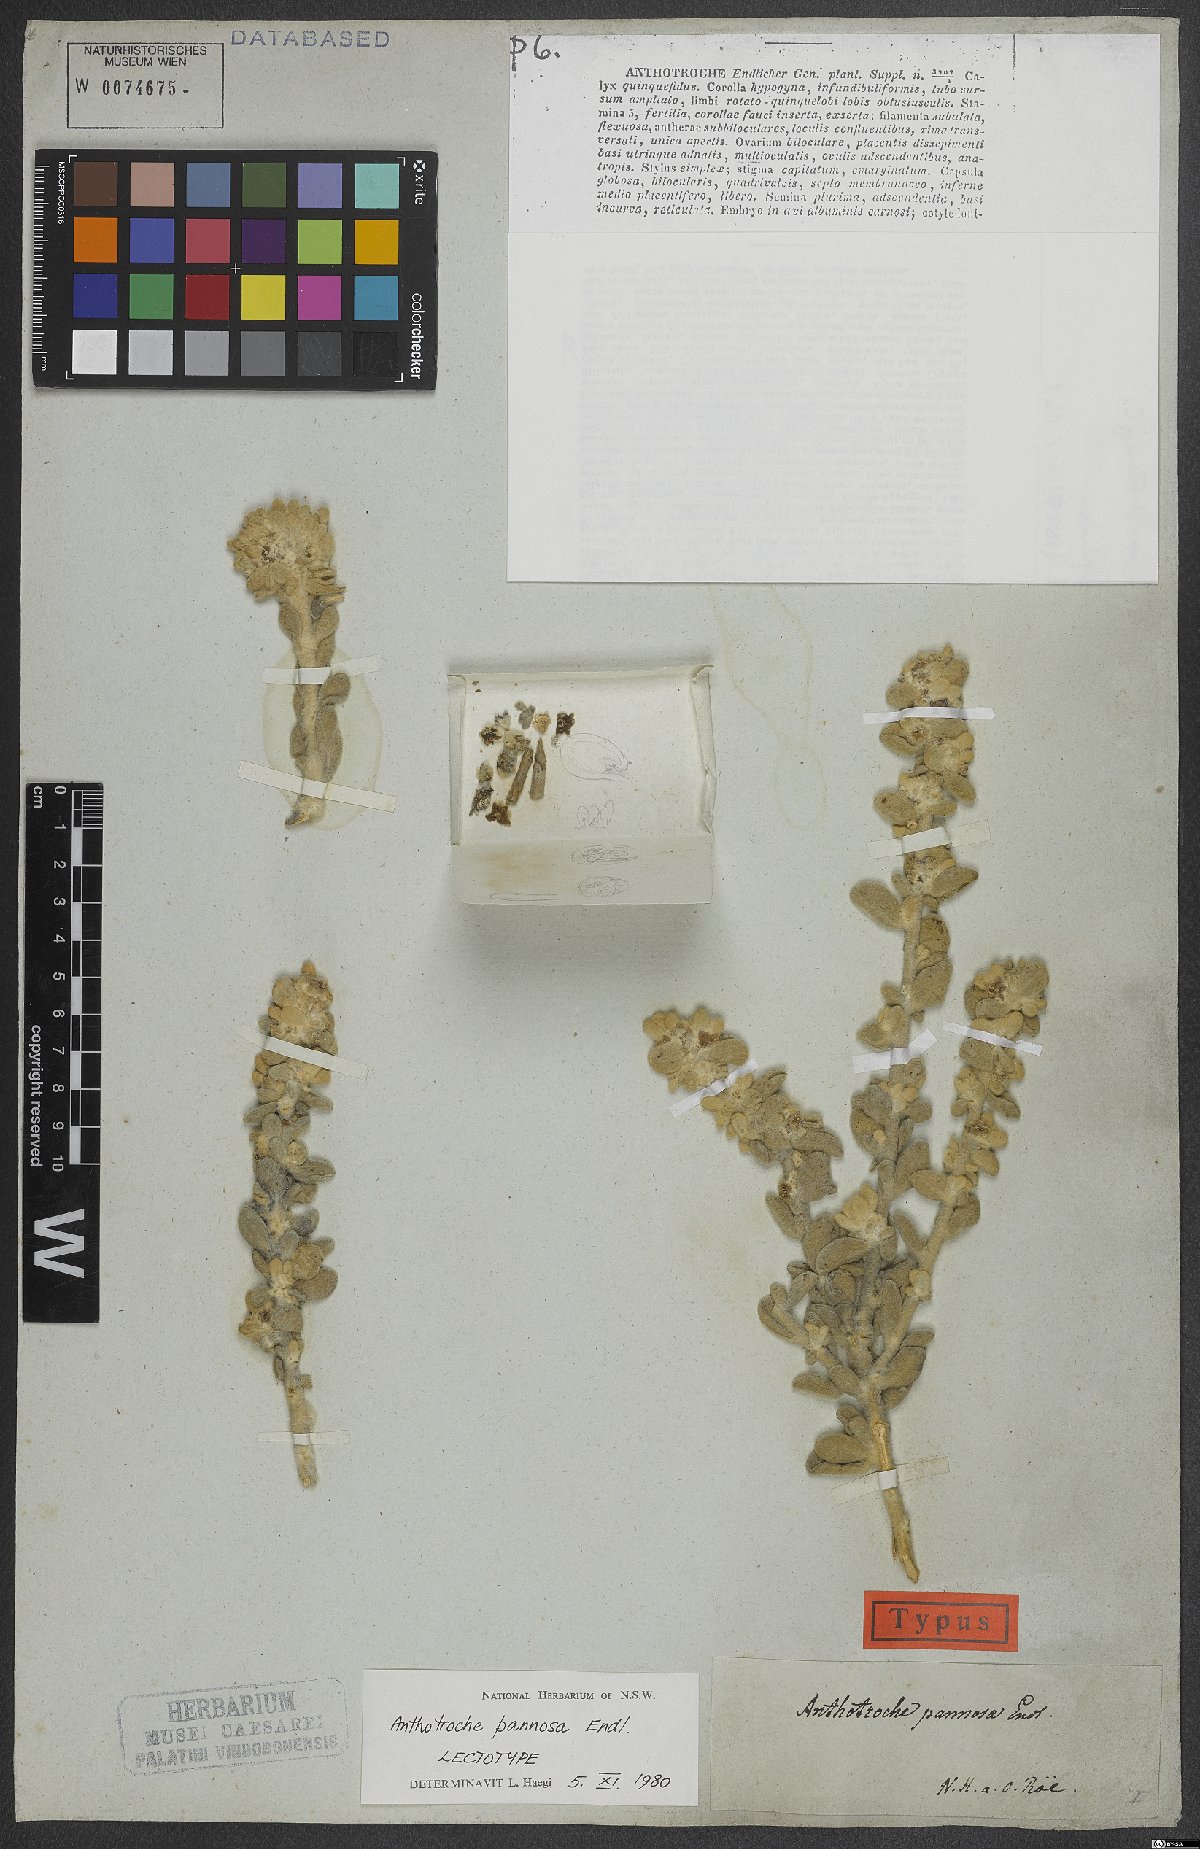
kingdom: Plantae
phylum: Tracheophyta
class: Magnoliopsida
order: Solanales
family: Solanaceae
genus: Anthotroche
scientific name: Anthotroche pannosa
